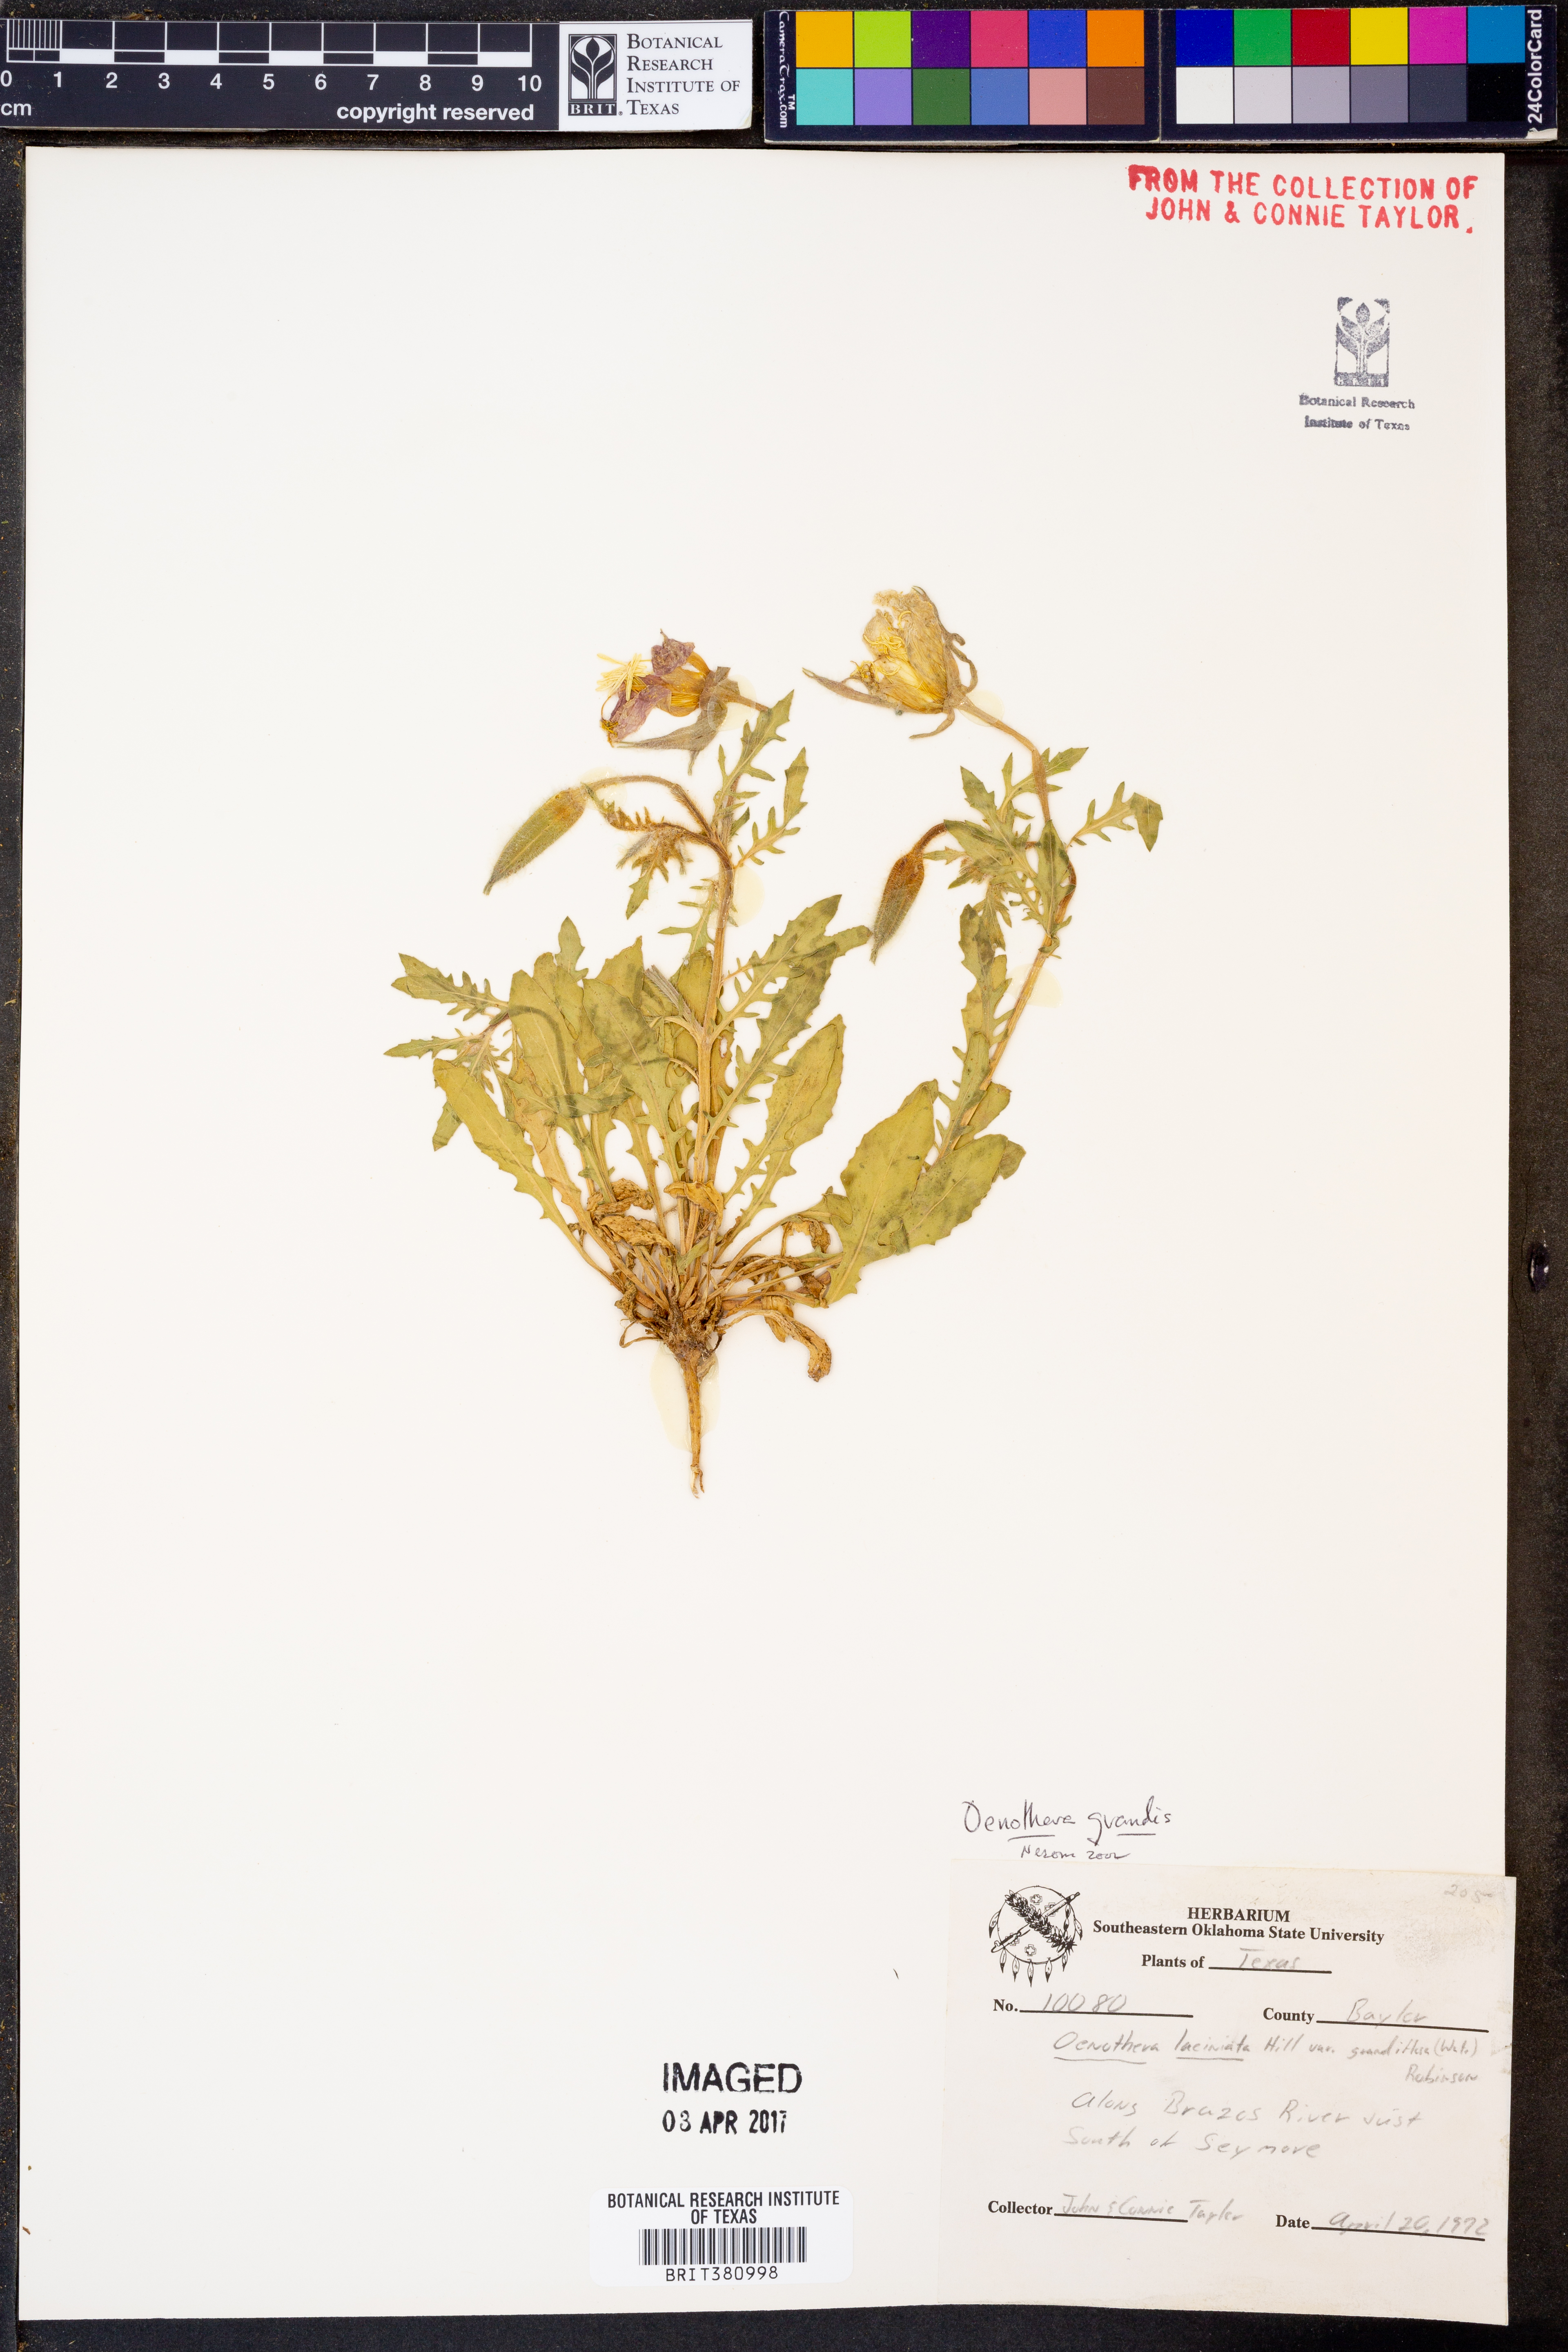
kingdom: Plantae
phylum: Tracheophyta
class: Magnoliopsida
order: Myrtales
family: Onagraceae
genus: Oenothera
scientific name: Oenothera grandis
